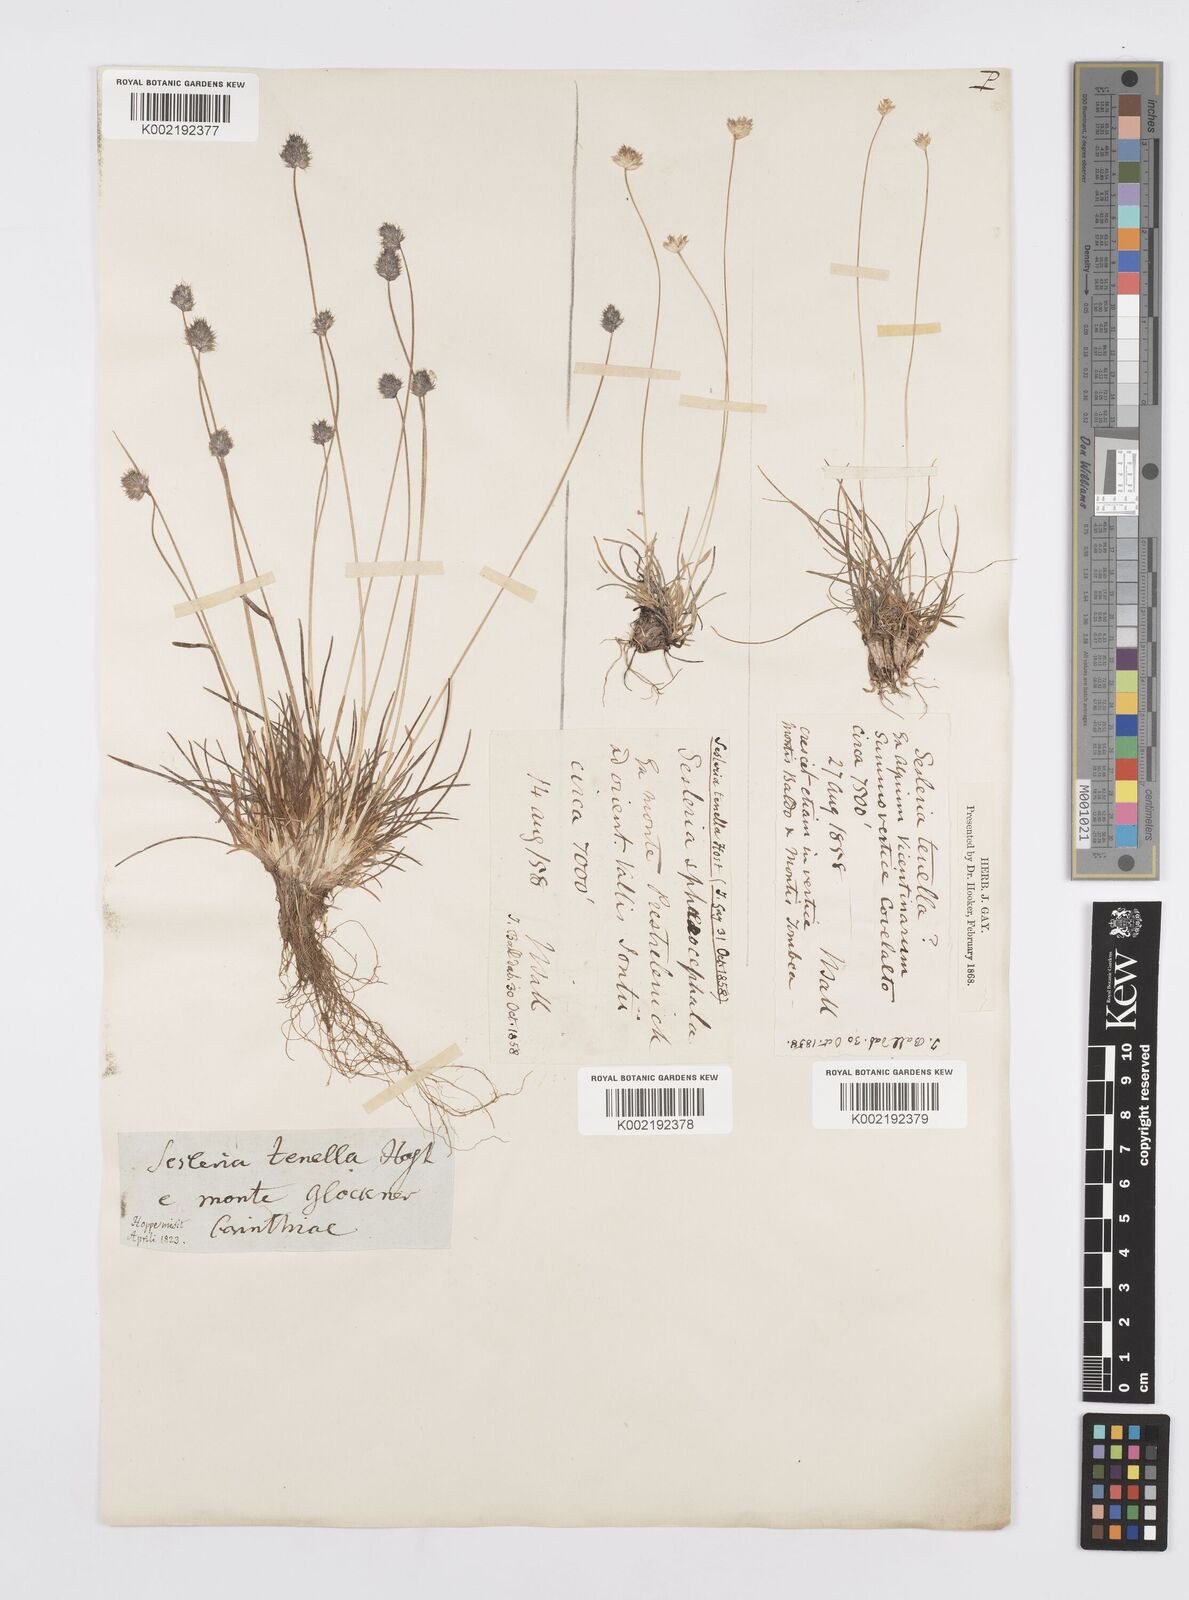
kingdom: Plantae
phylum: Tracheophyta
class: Liliopsida
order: Poales
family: Poaceae
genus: Psilathera
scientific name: Psilathera ovata
